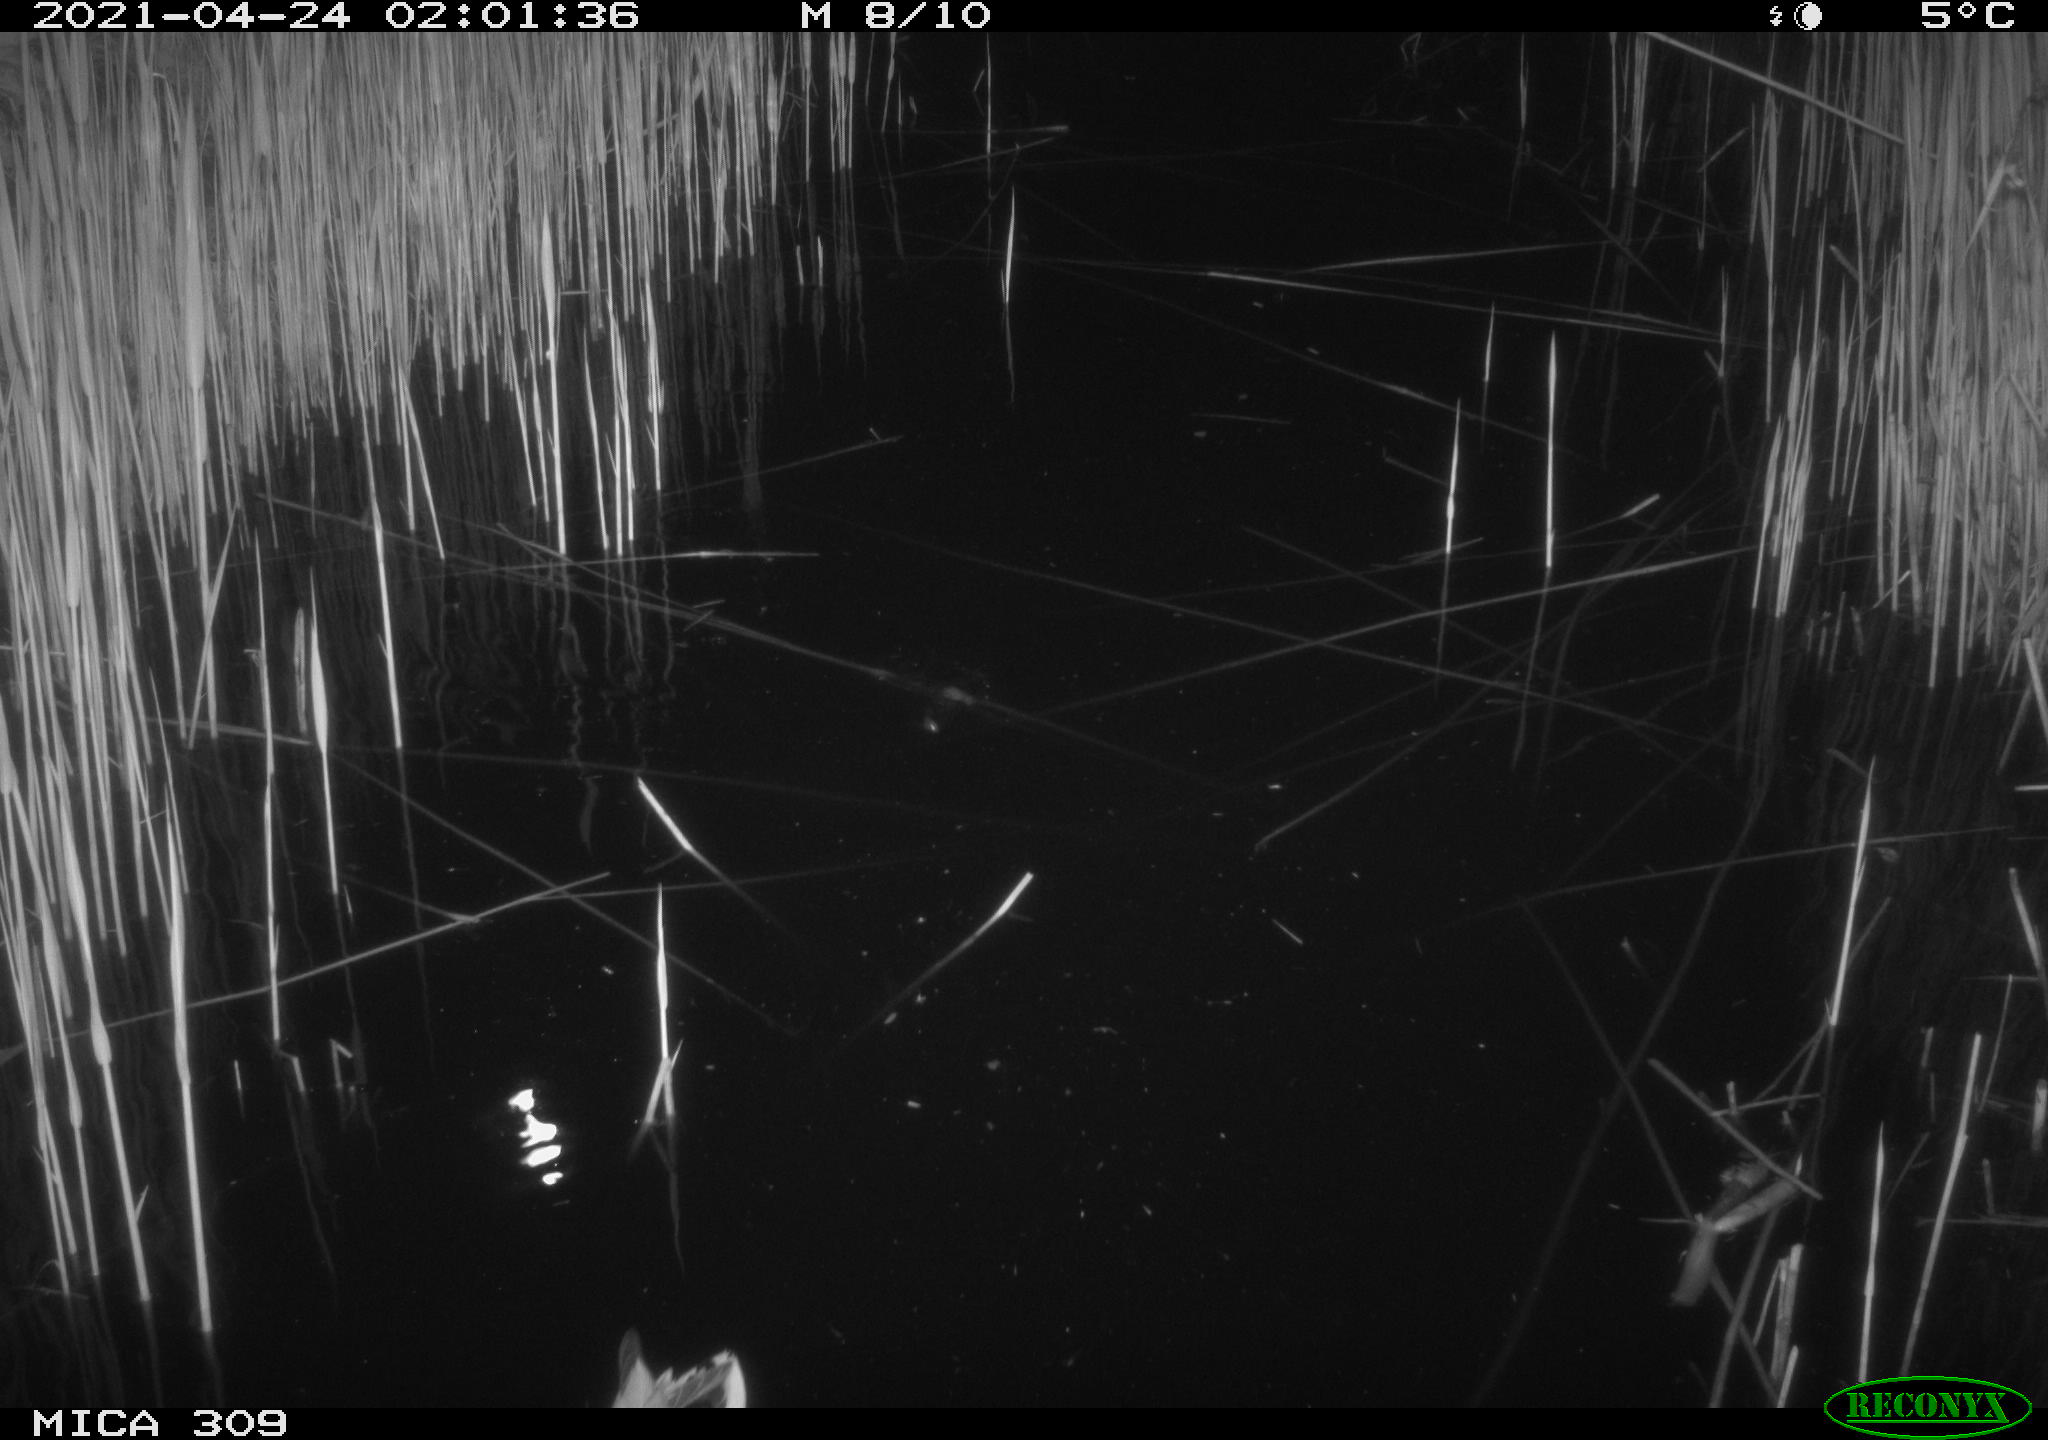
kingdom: Animalia
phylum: Chordata
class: Aves
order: Anseriformes
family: Anatidae
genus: Anas
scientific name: Anas platyrhynchos
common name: Mallard
